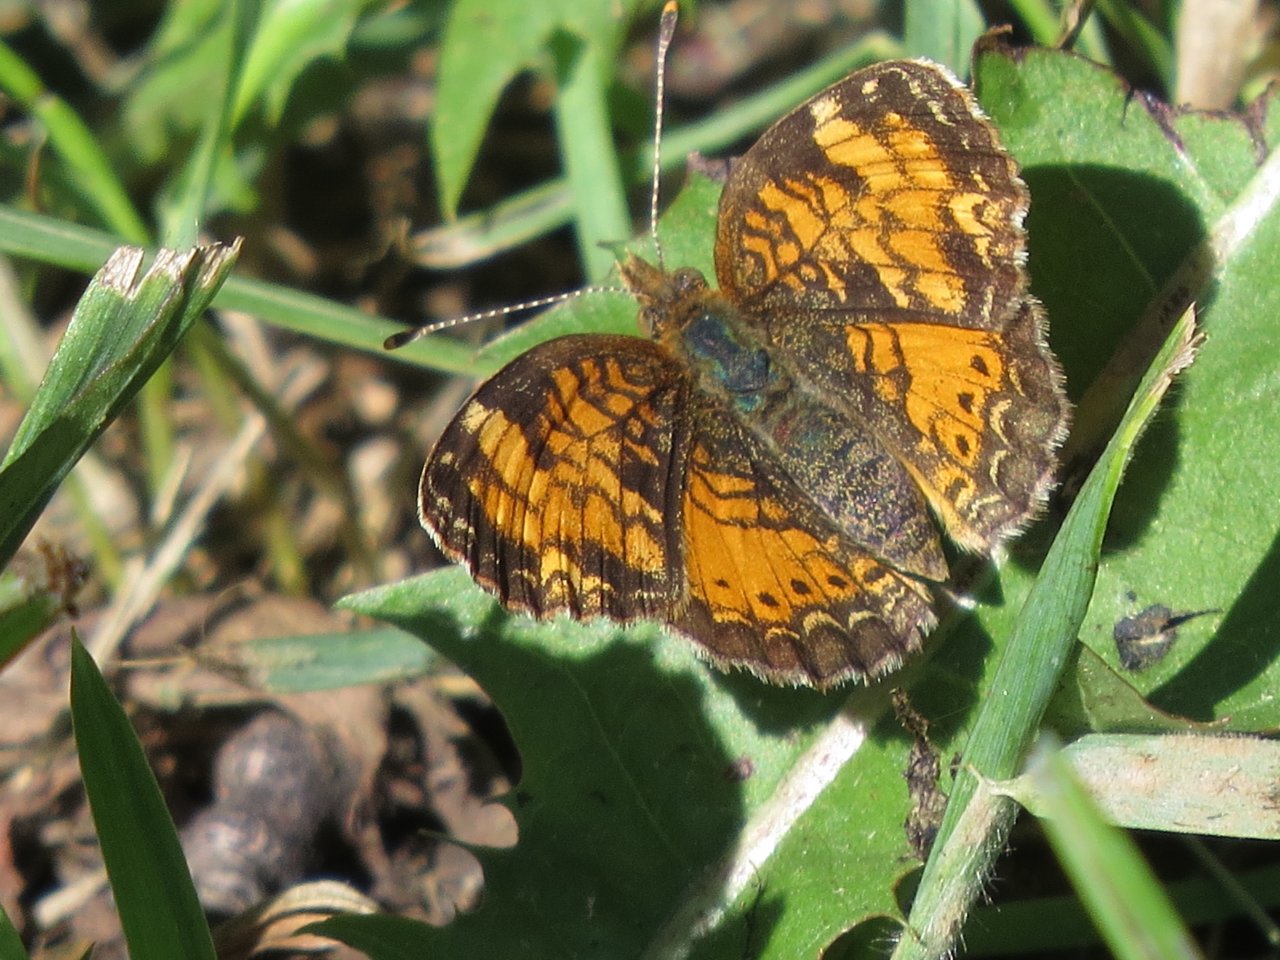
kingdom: Animalia
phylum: Arthropoda
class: Insecta
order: Lepidoptera
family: Nymphalidae
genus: Phyciodes
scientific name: Phyciodes tharos
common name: Northern Crescent
